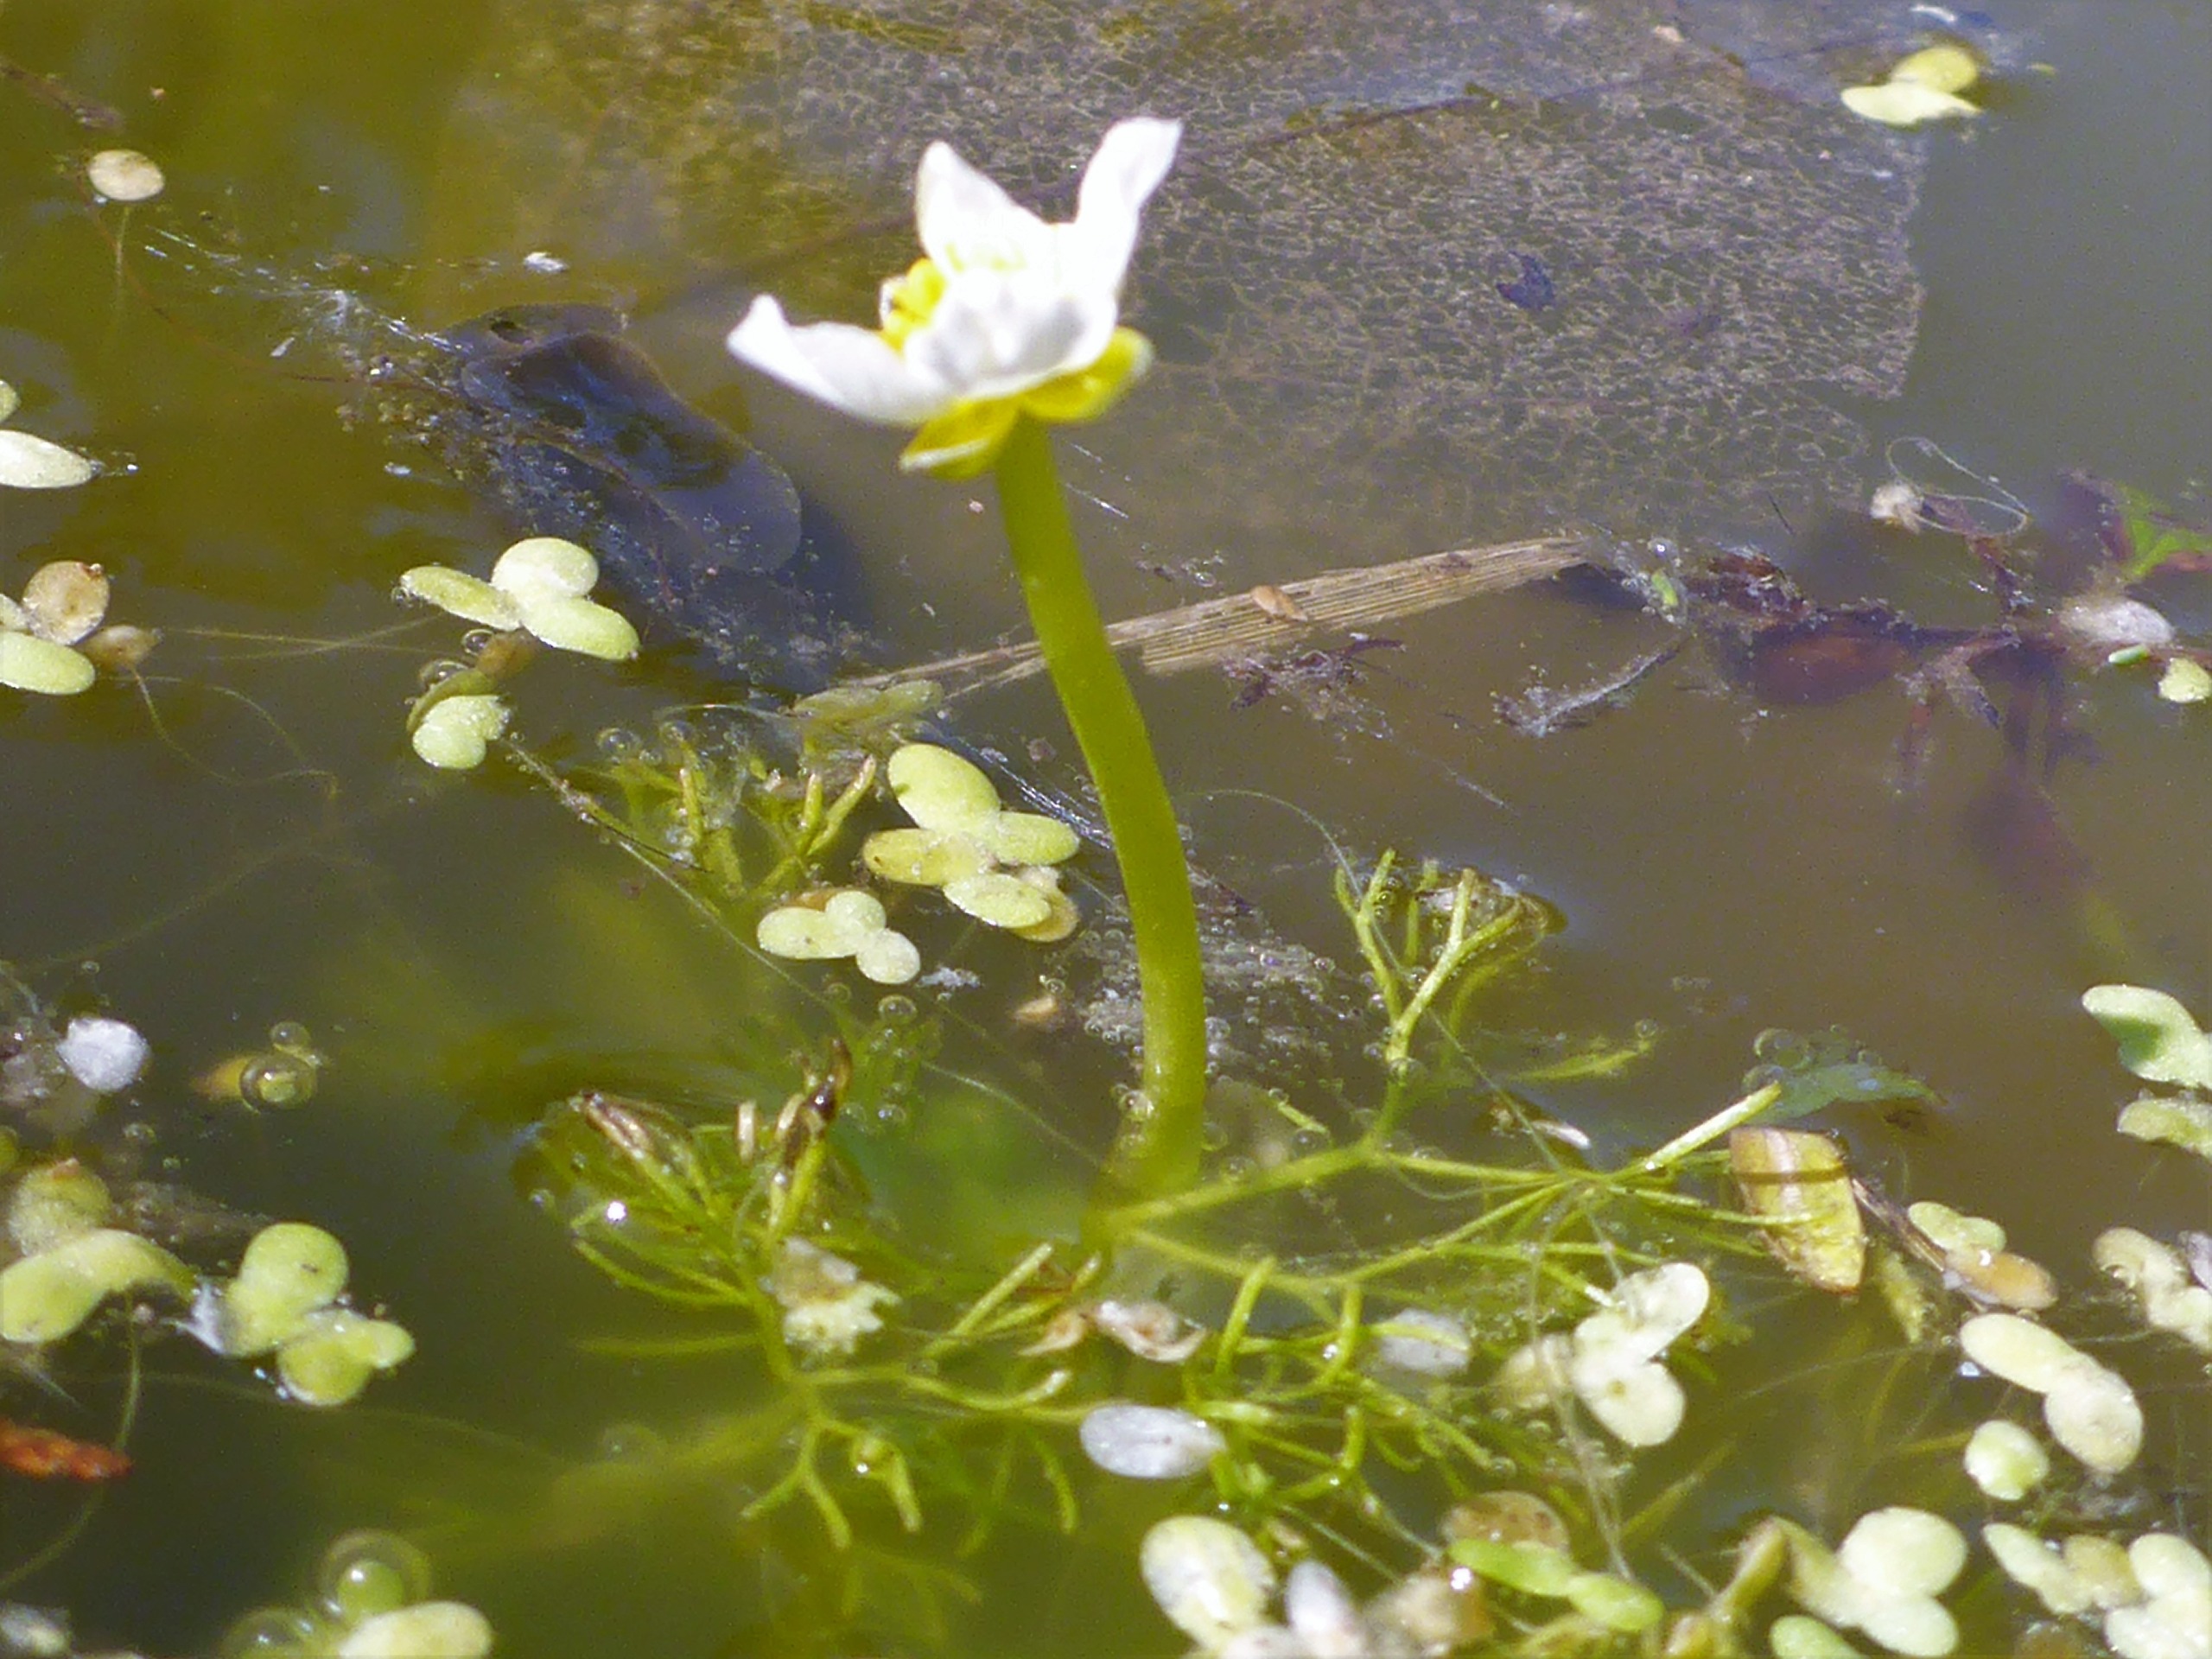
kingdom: Plantae
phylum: Tracheophyta
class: Magnoliopsida
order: Ranunculales
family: Ranunculaceae
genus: Ranunculus
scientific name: Ranunculus
